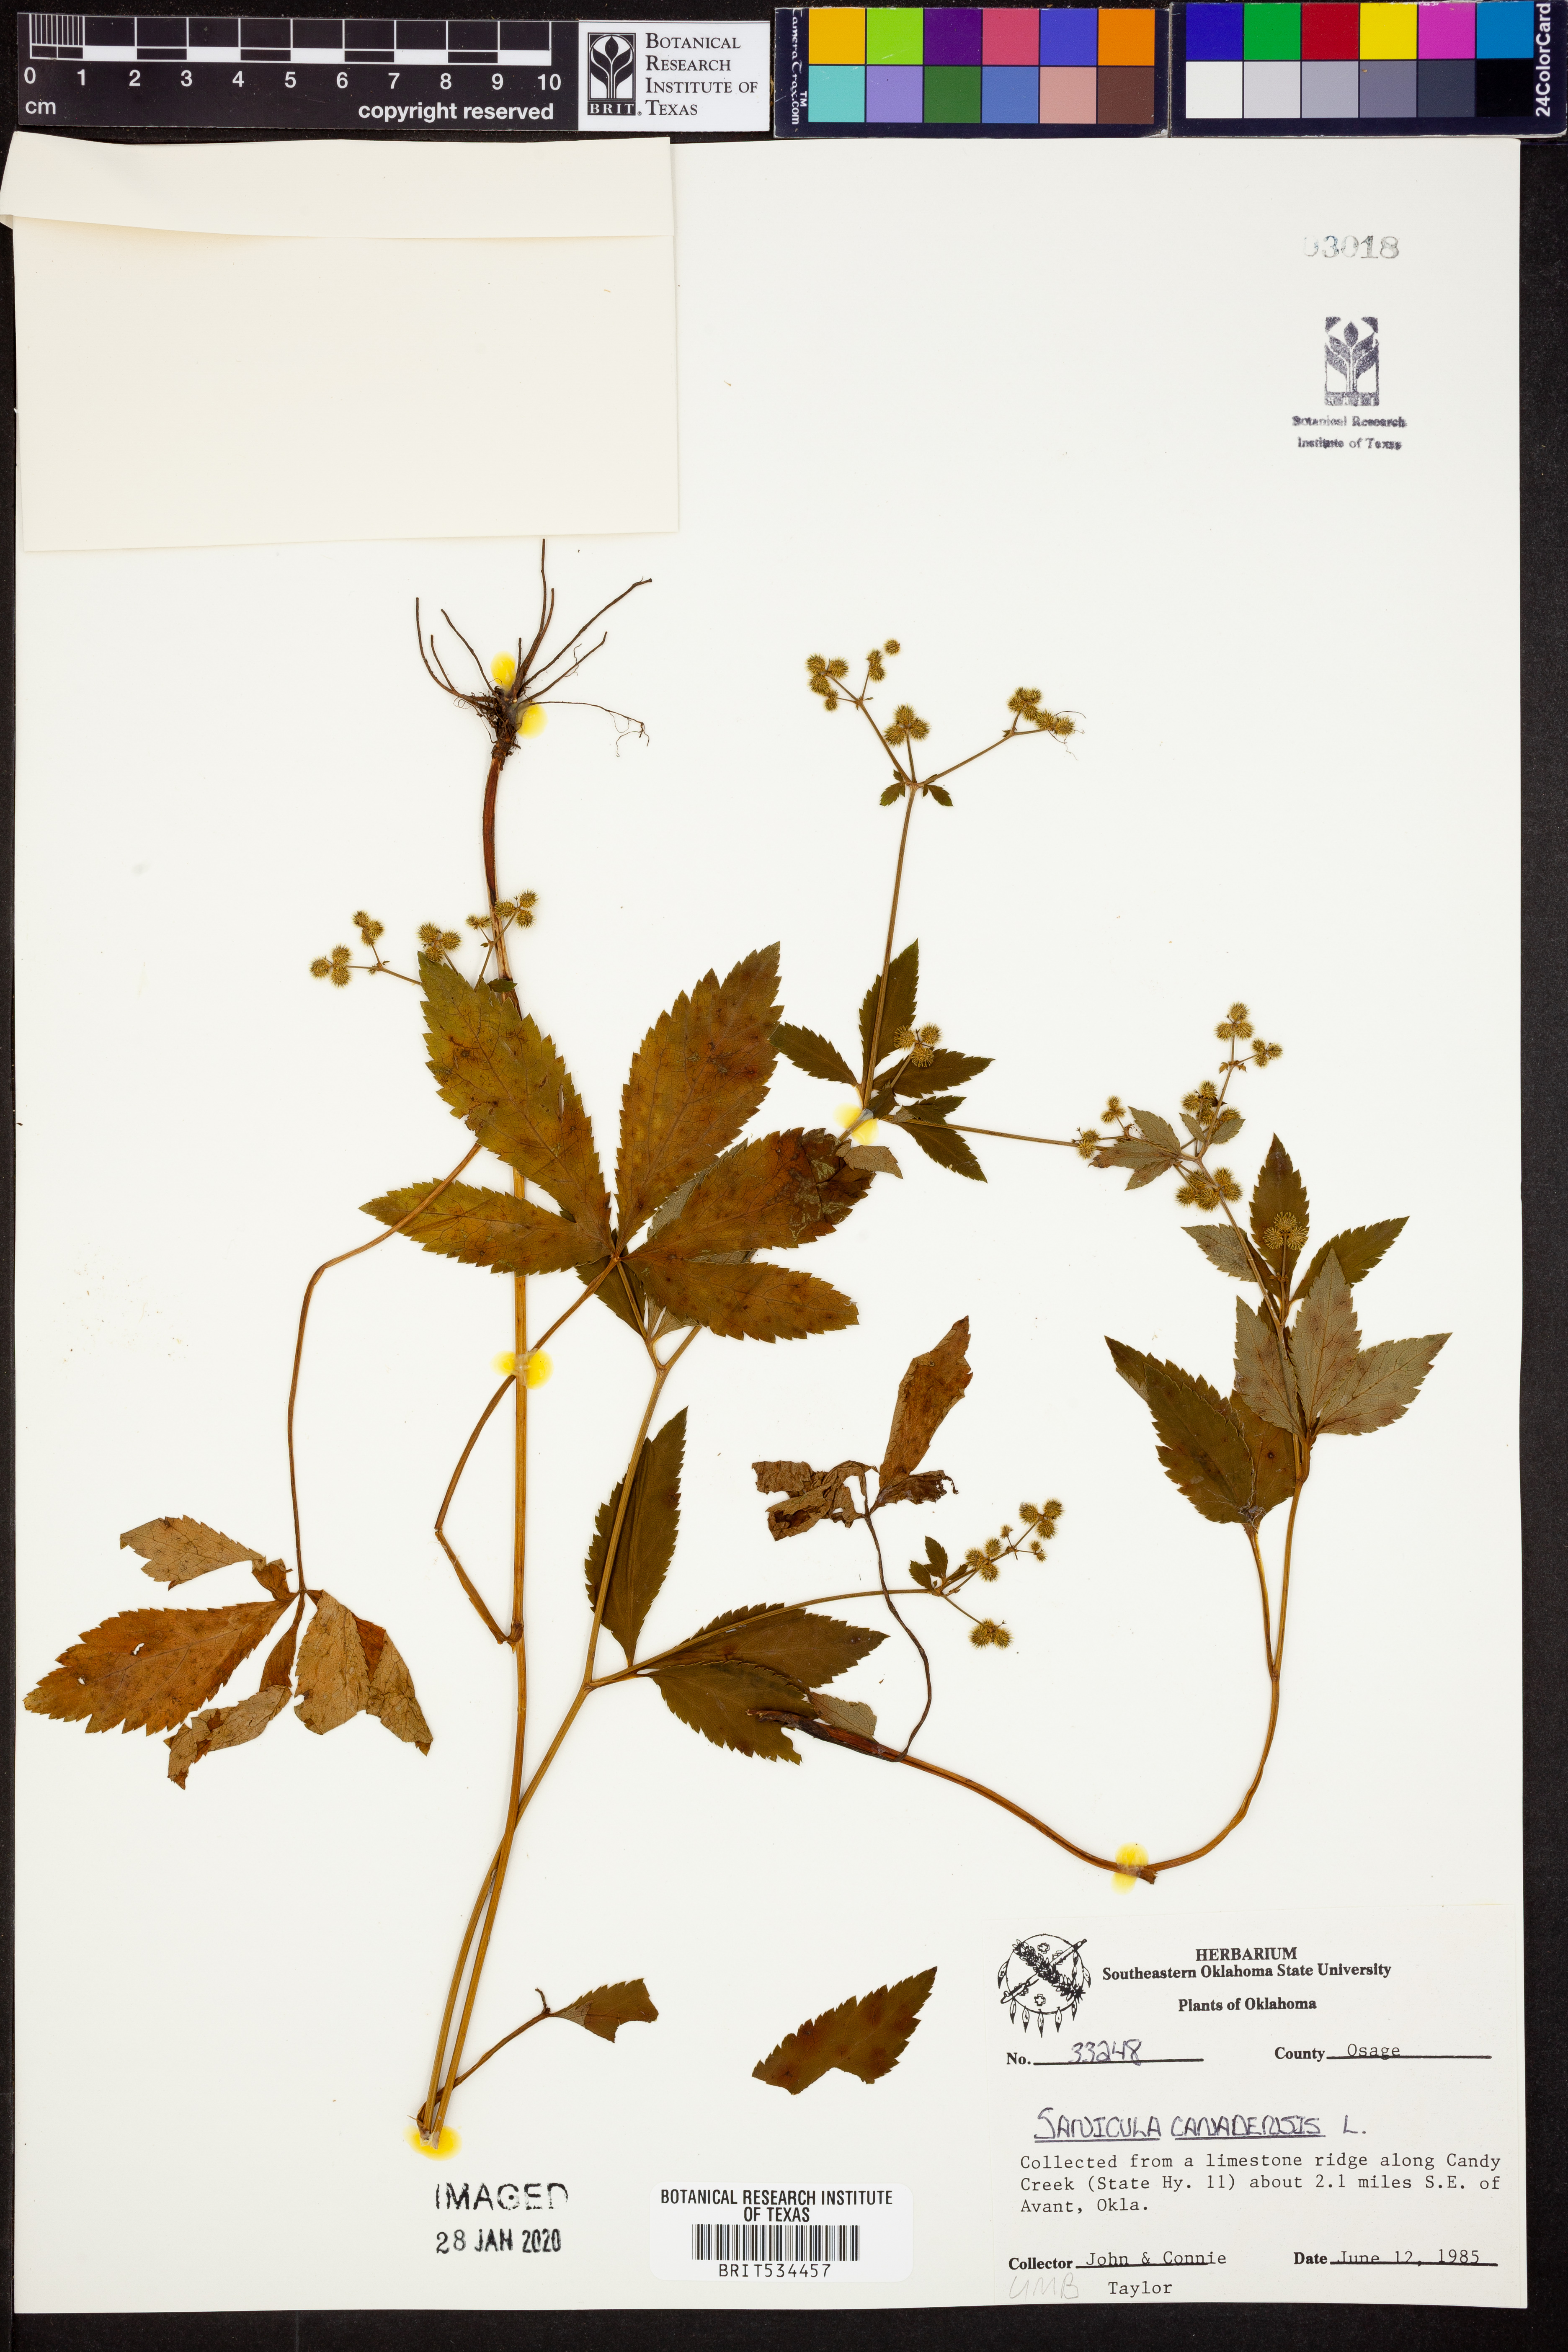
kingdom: Plantae
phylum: Tracheophyta
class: Magnoliopsida
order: Apiales
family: Apiaceae
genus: Sanicula
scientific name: Sanicula canadensis
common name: Canada sanicle
